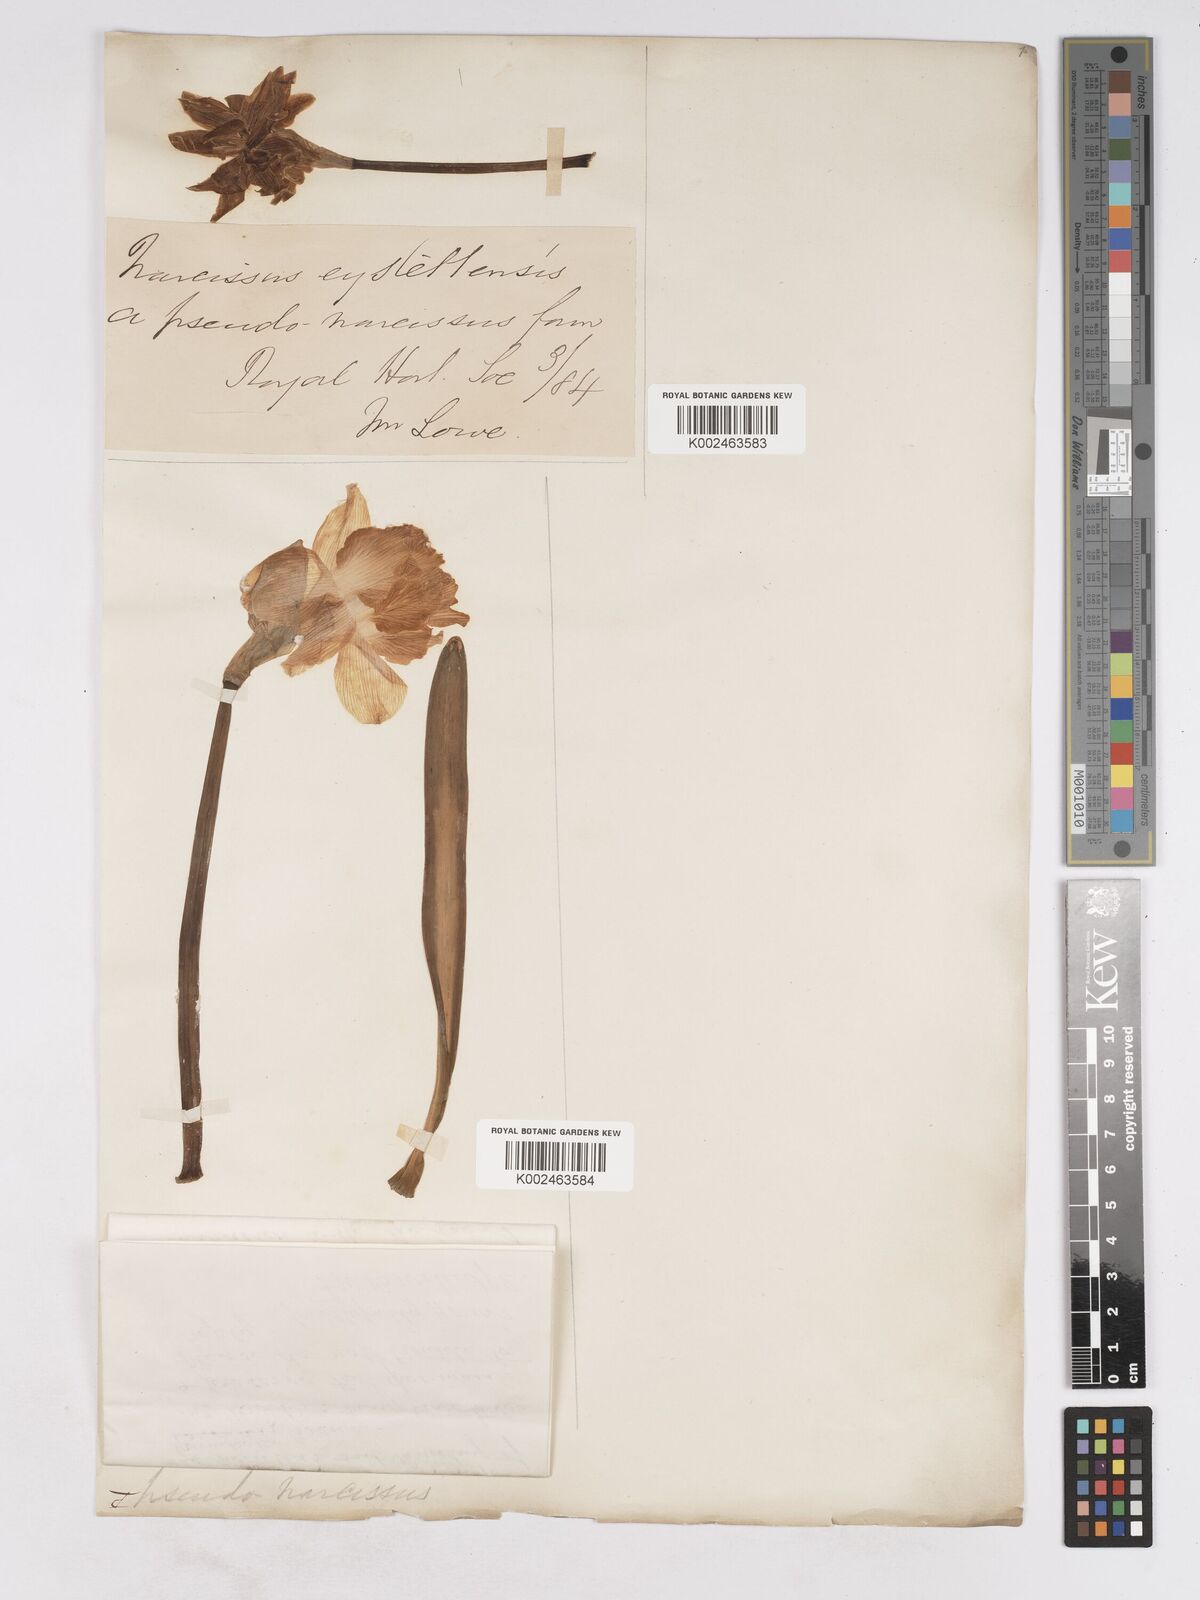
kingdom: Plantae
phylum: Tracheophyta
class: Liliopsida
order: Asparagales
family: Amaryllidaceae
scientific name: Amaryllidaceae
